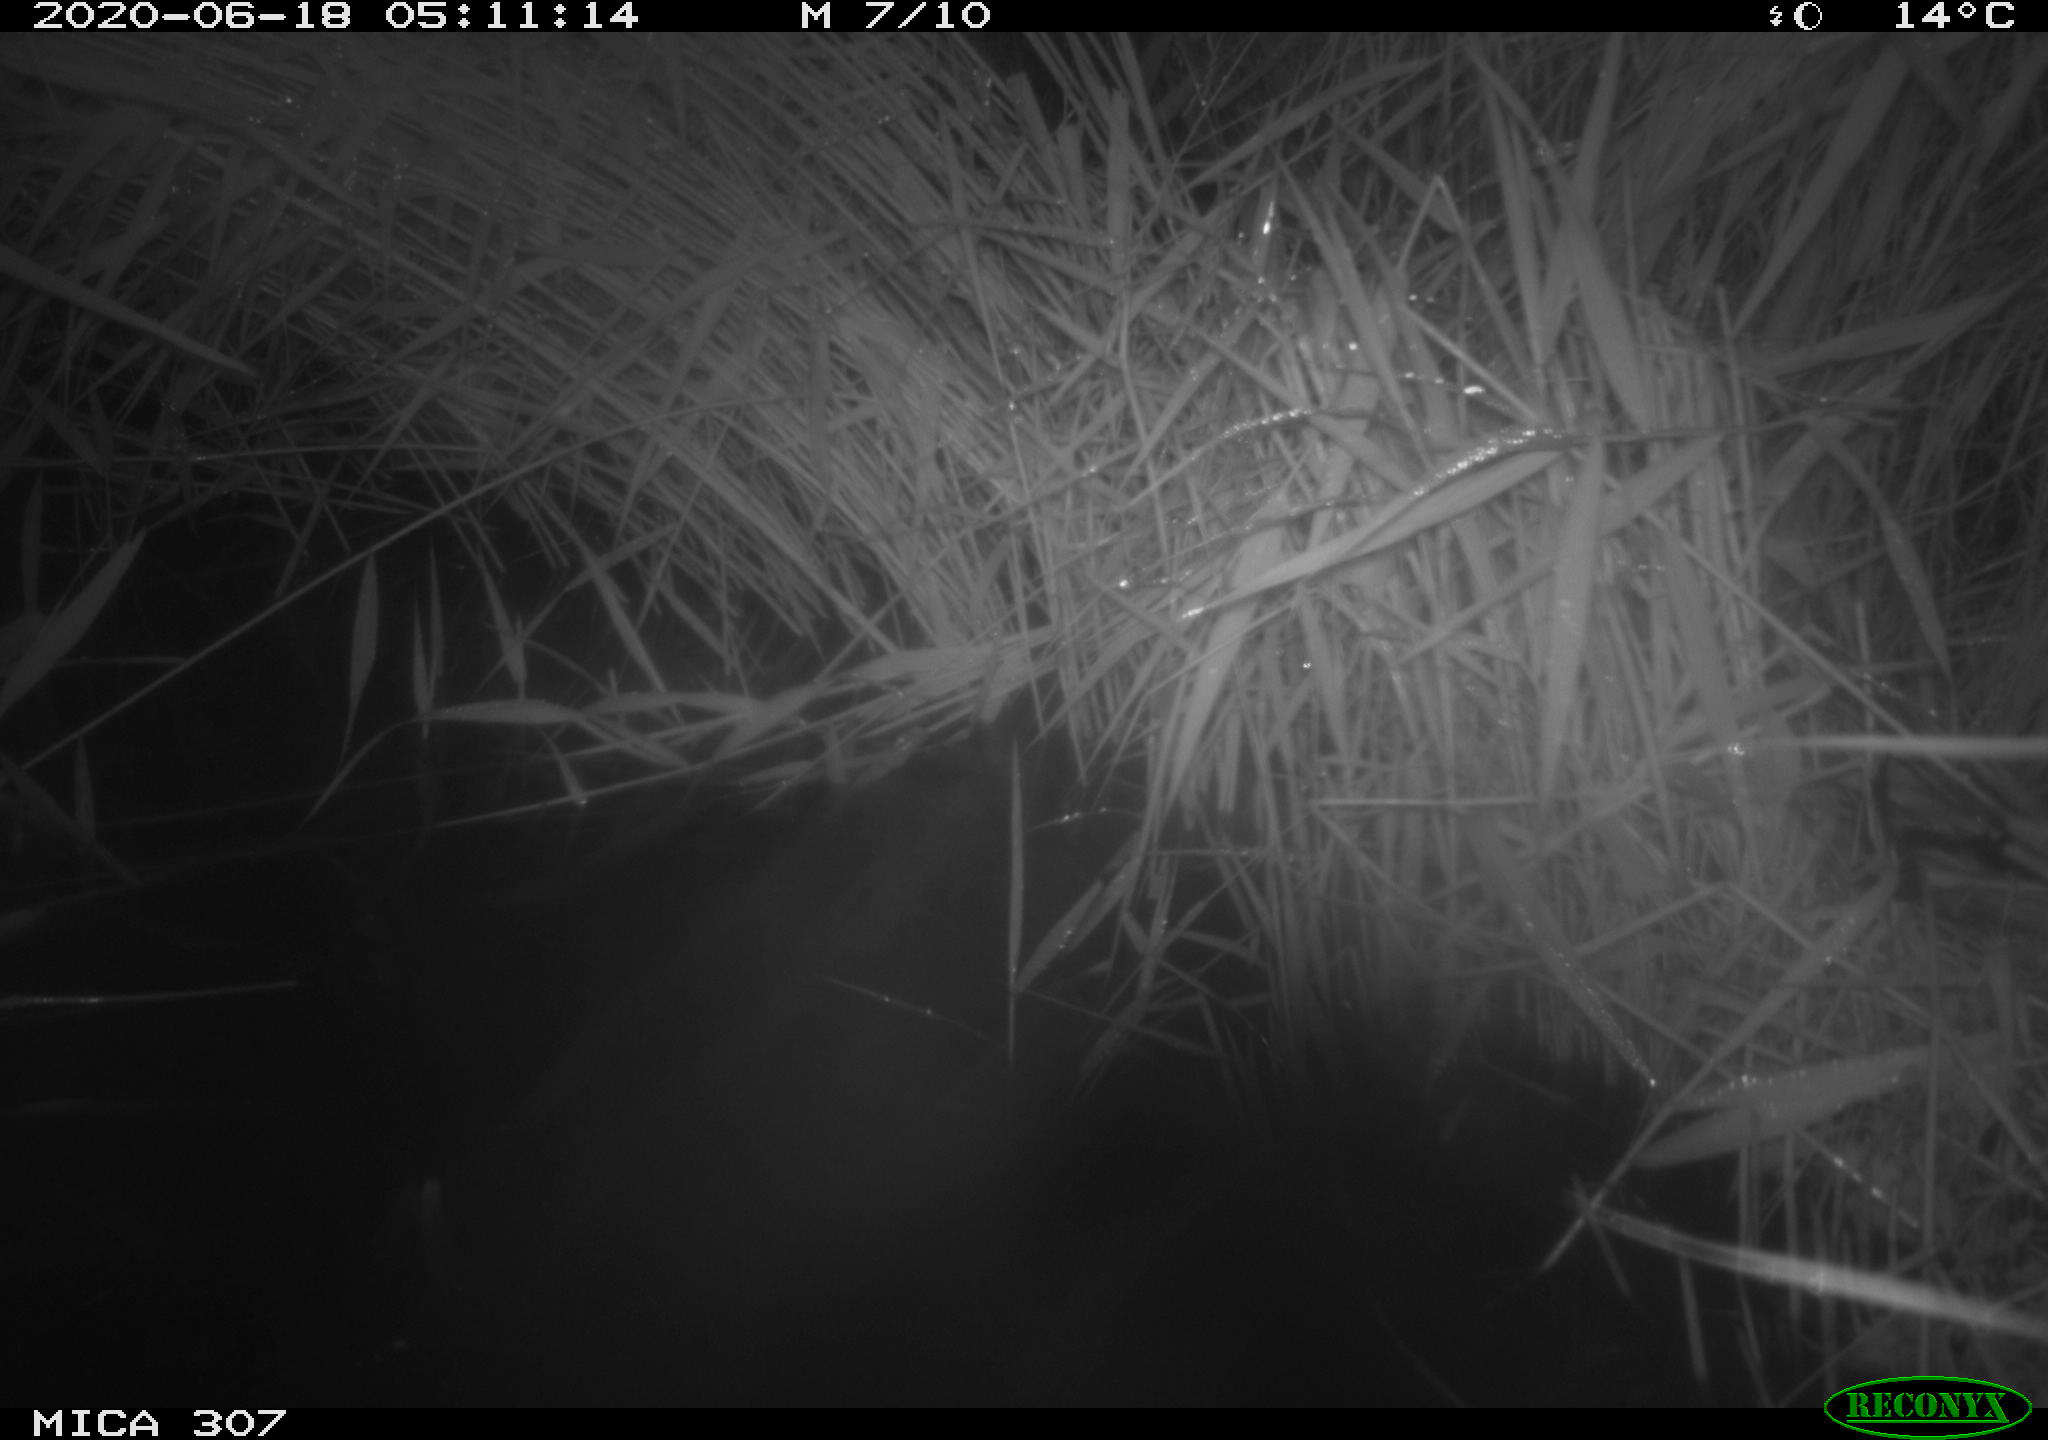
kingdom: Animalia
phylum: Chordata
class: Mammalia
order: Rodentia
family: Muridae
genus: Rattus
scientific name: Rattus norvegicus
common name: Brown rat
